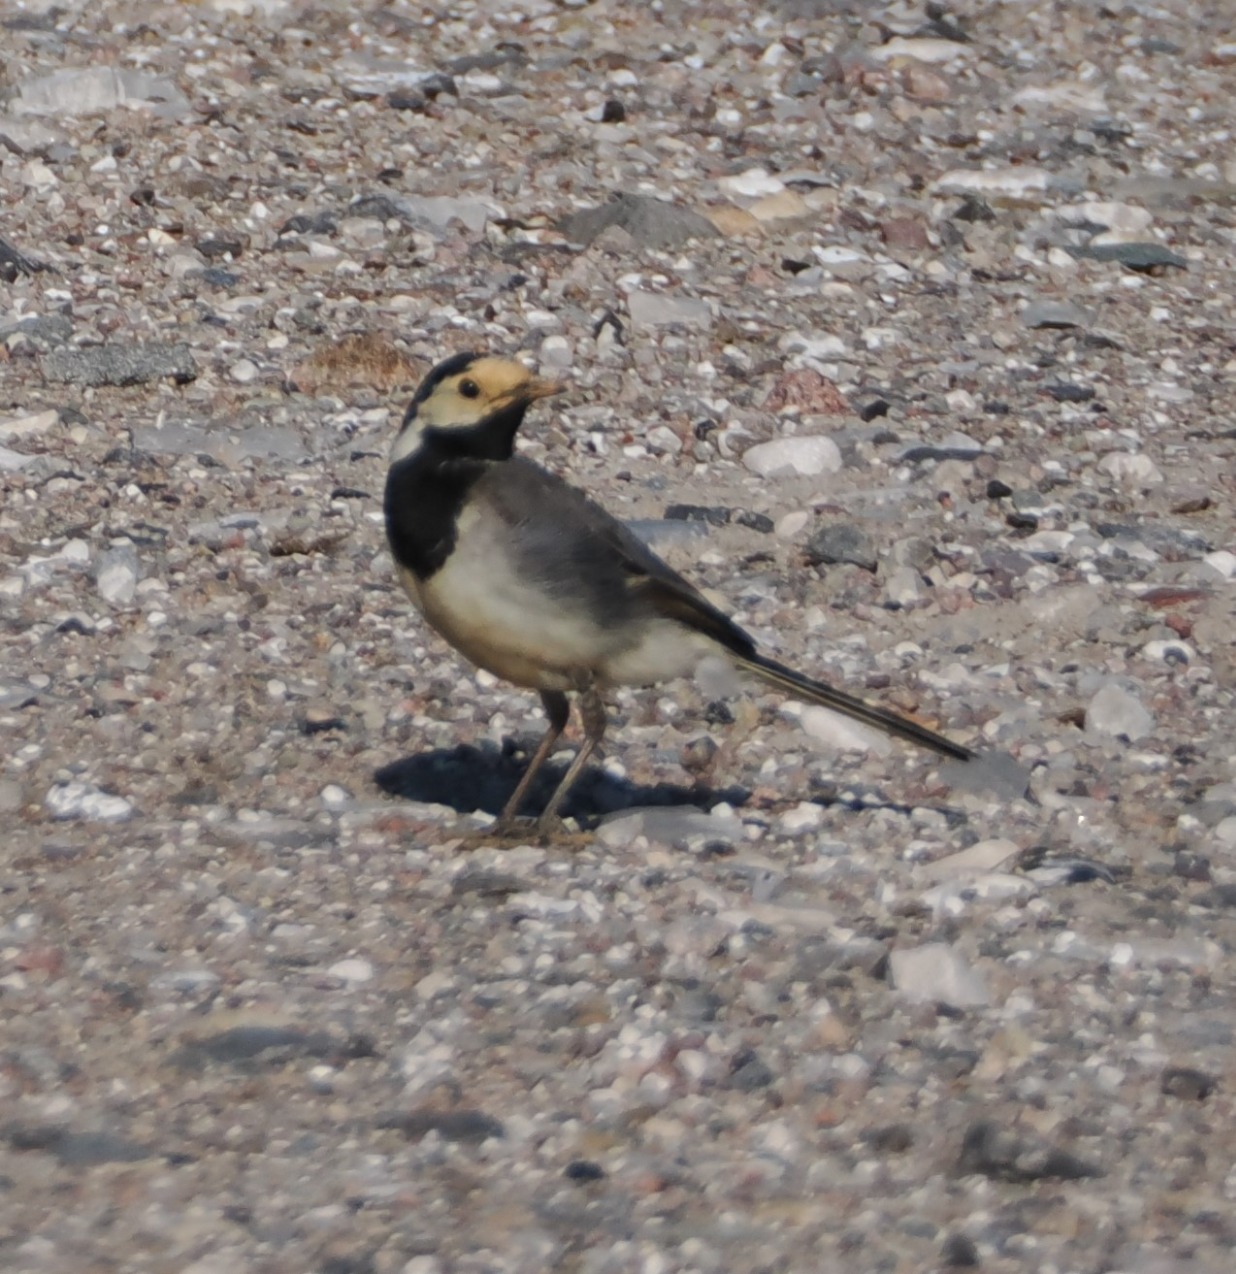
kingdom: Animalia
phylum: Chordata
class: Aves
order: Passeriformes
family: Motacillidae
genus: Motacilla
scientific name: Motacilla alba
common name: Hvid vipstjert
